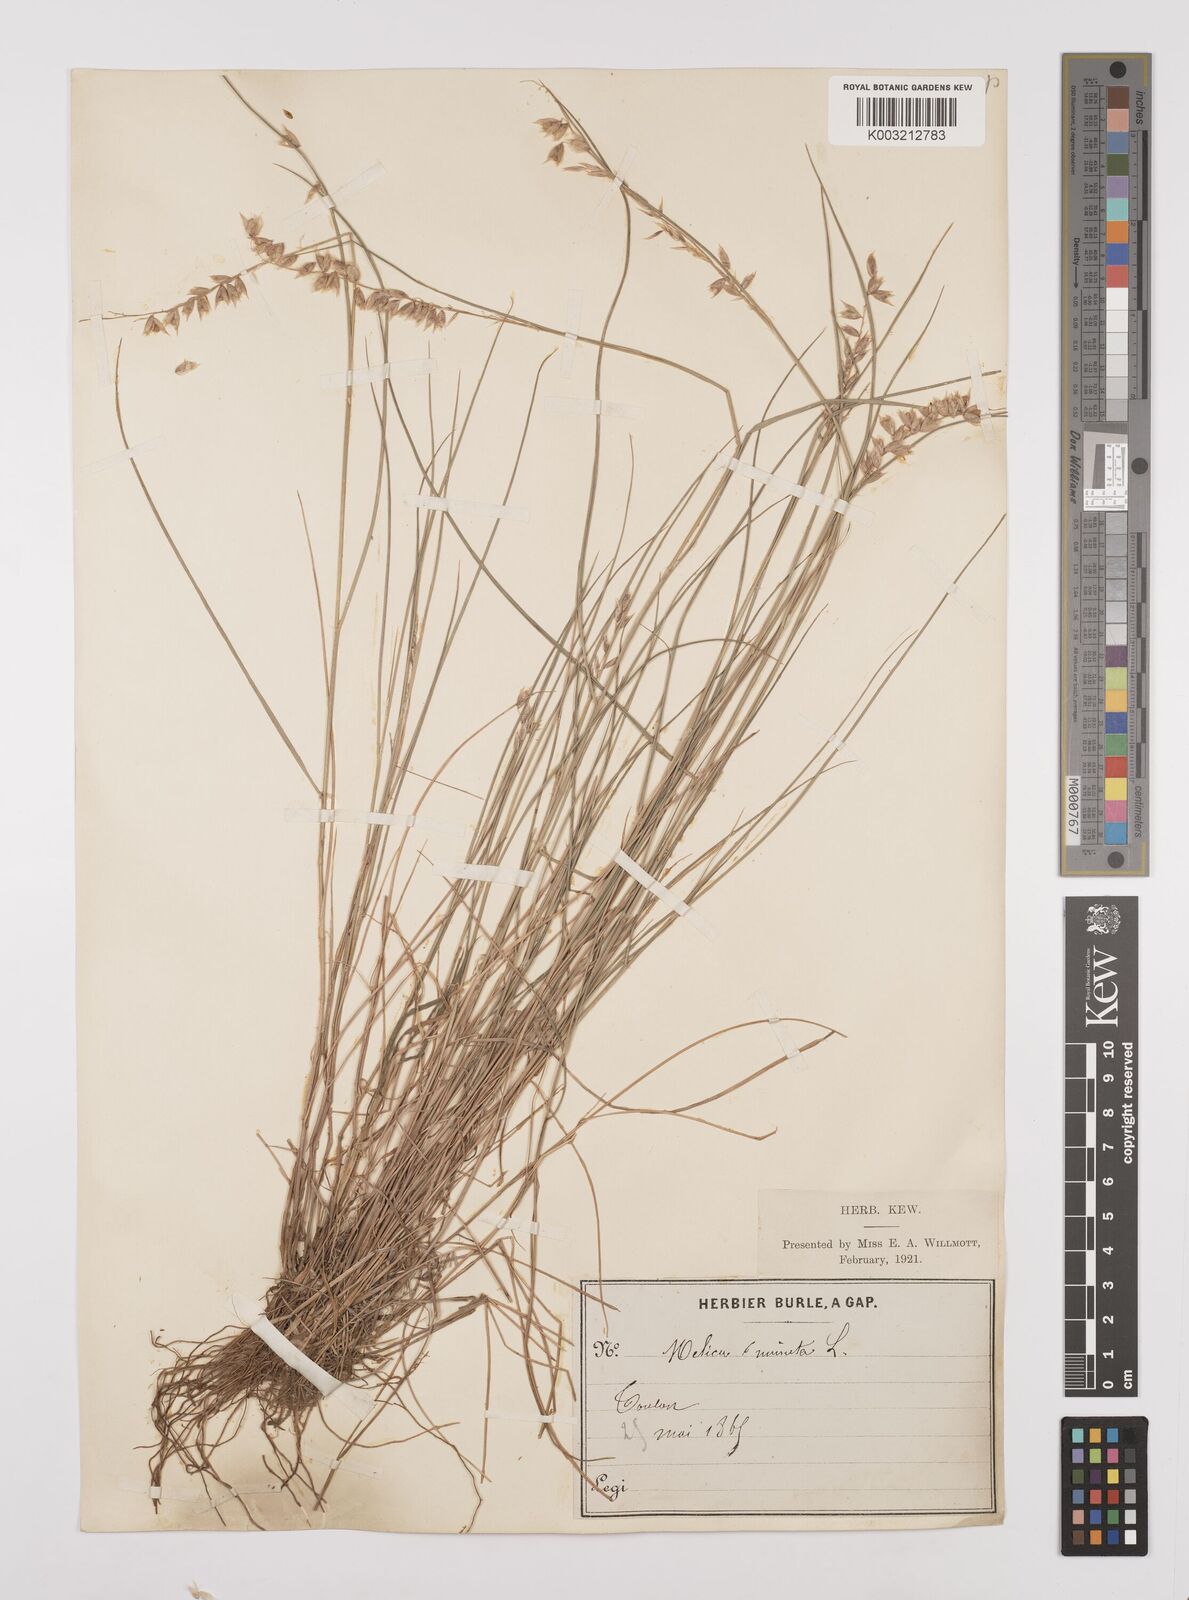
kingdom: Plantae
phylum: Tracheophyta
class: Liliopsida
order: Poales
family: Poaceae
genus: Melica
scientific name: Melica minuta
